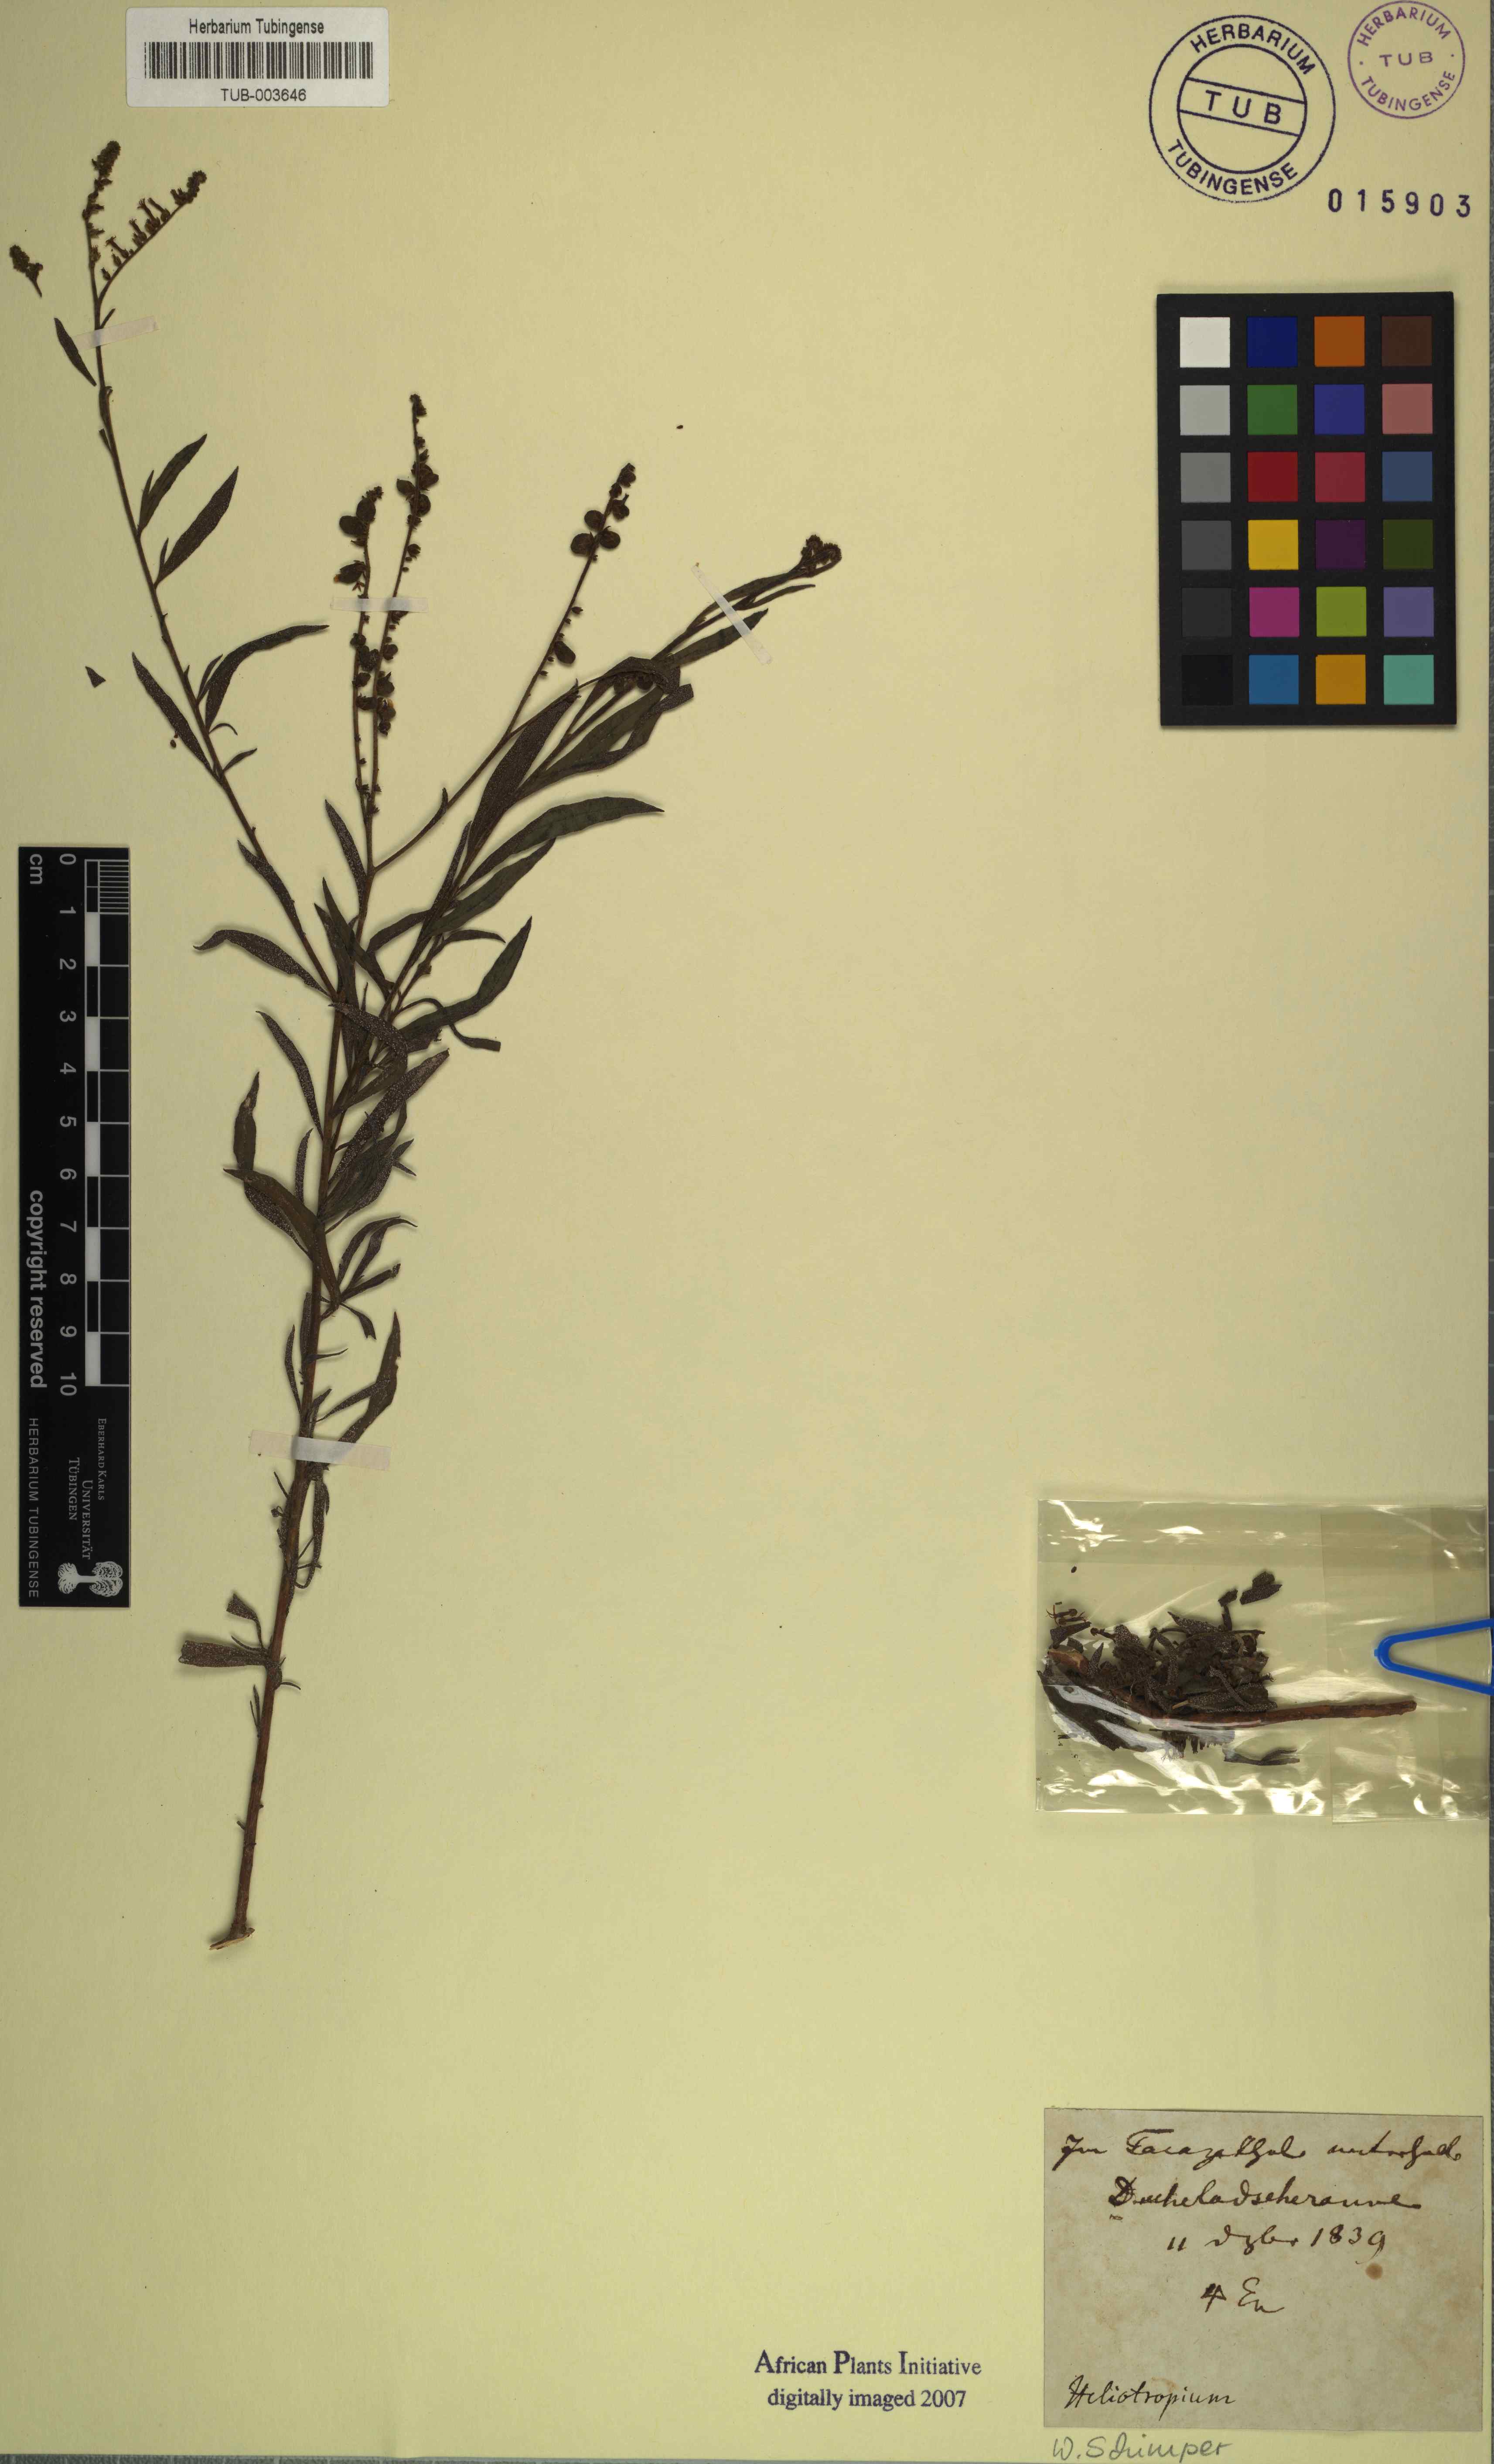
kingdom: Plantae
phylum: Tracheophyta
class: Magnoliopsida
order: Boraginales
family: Heliotropiaceae
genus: Heliotropium
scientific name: Heliotropium zeylanicum
